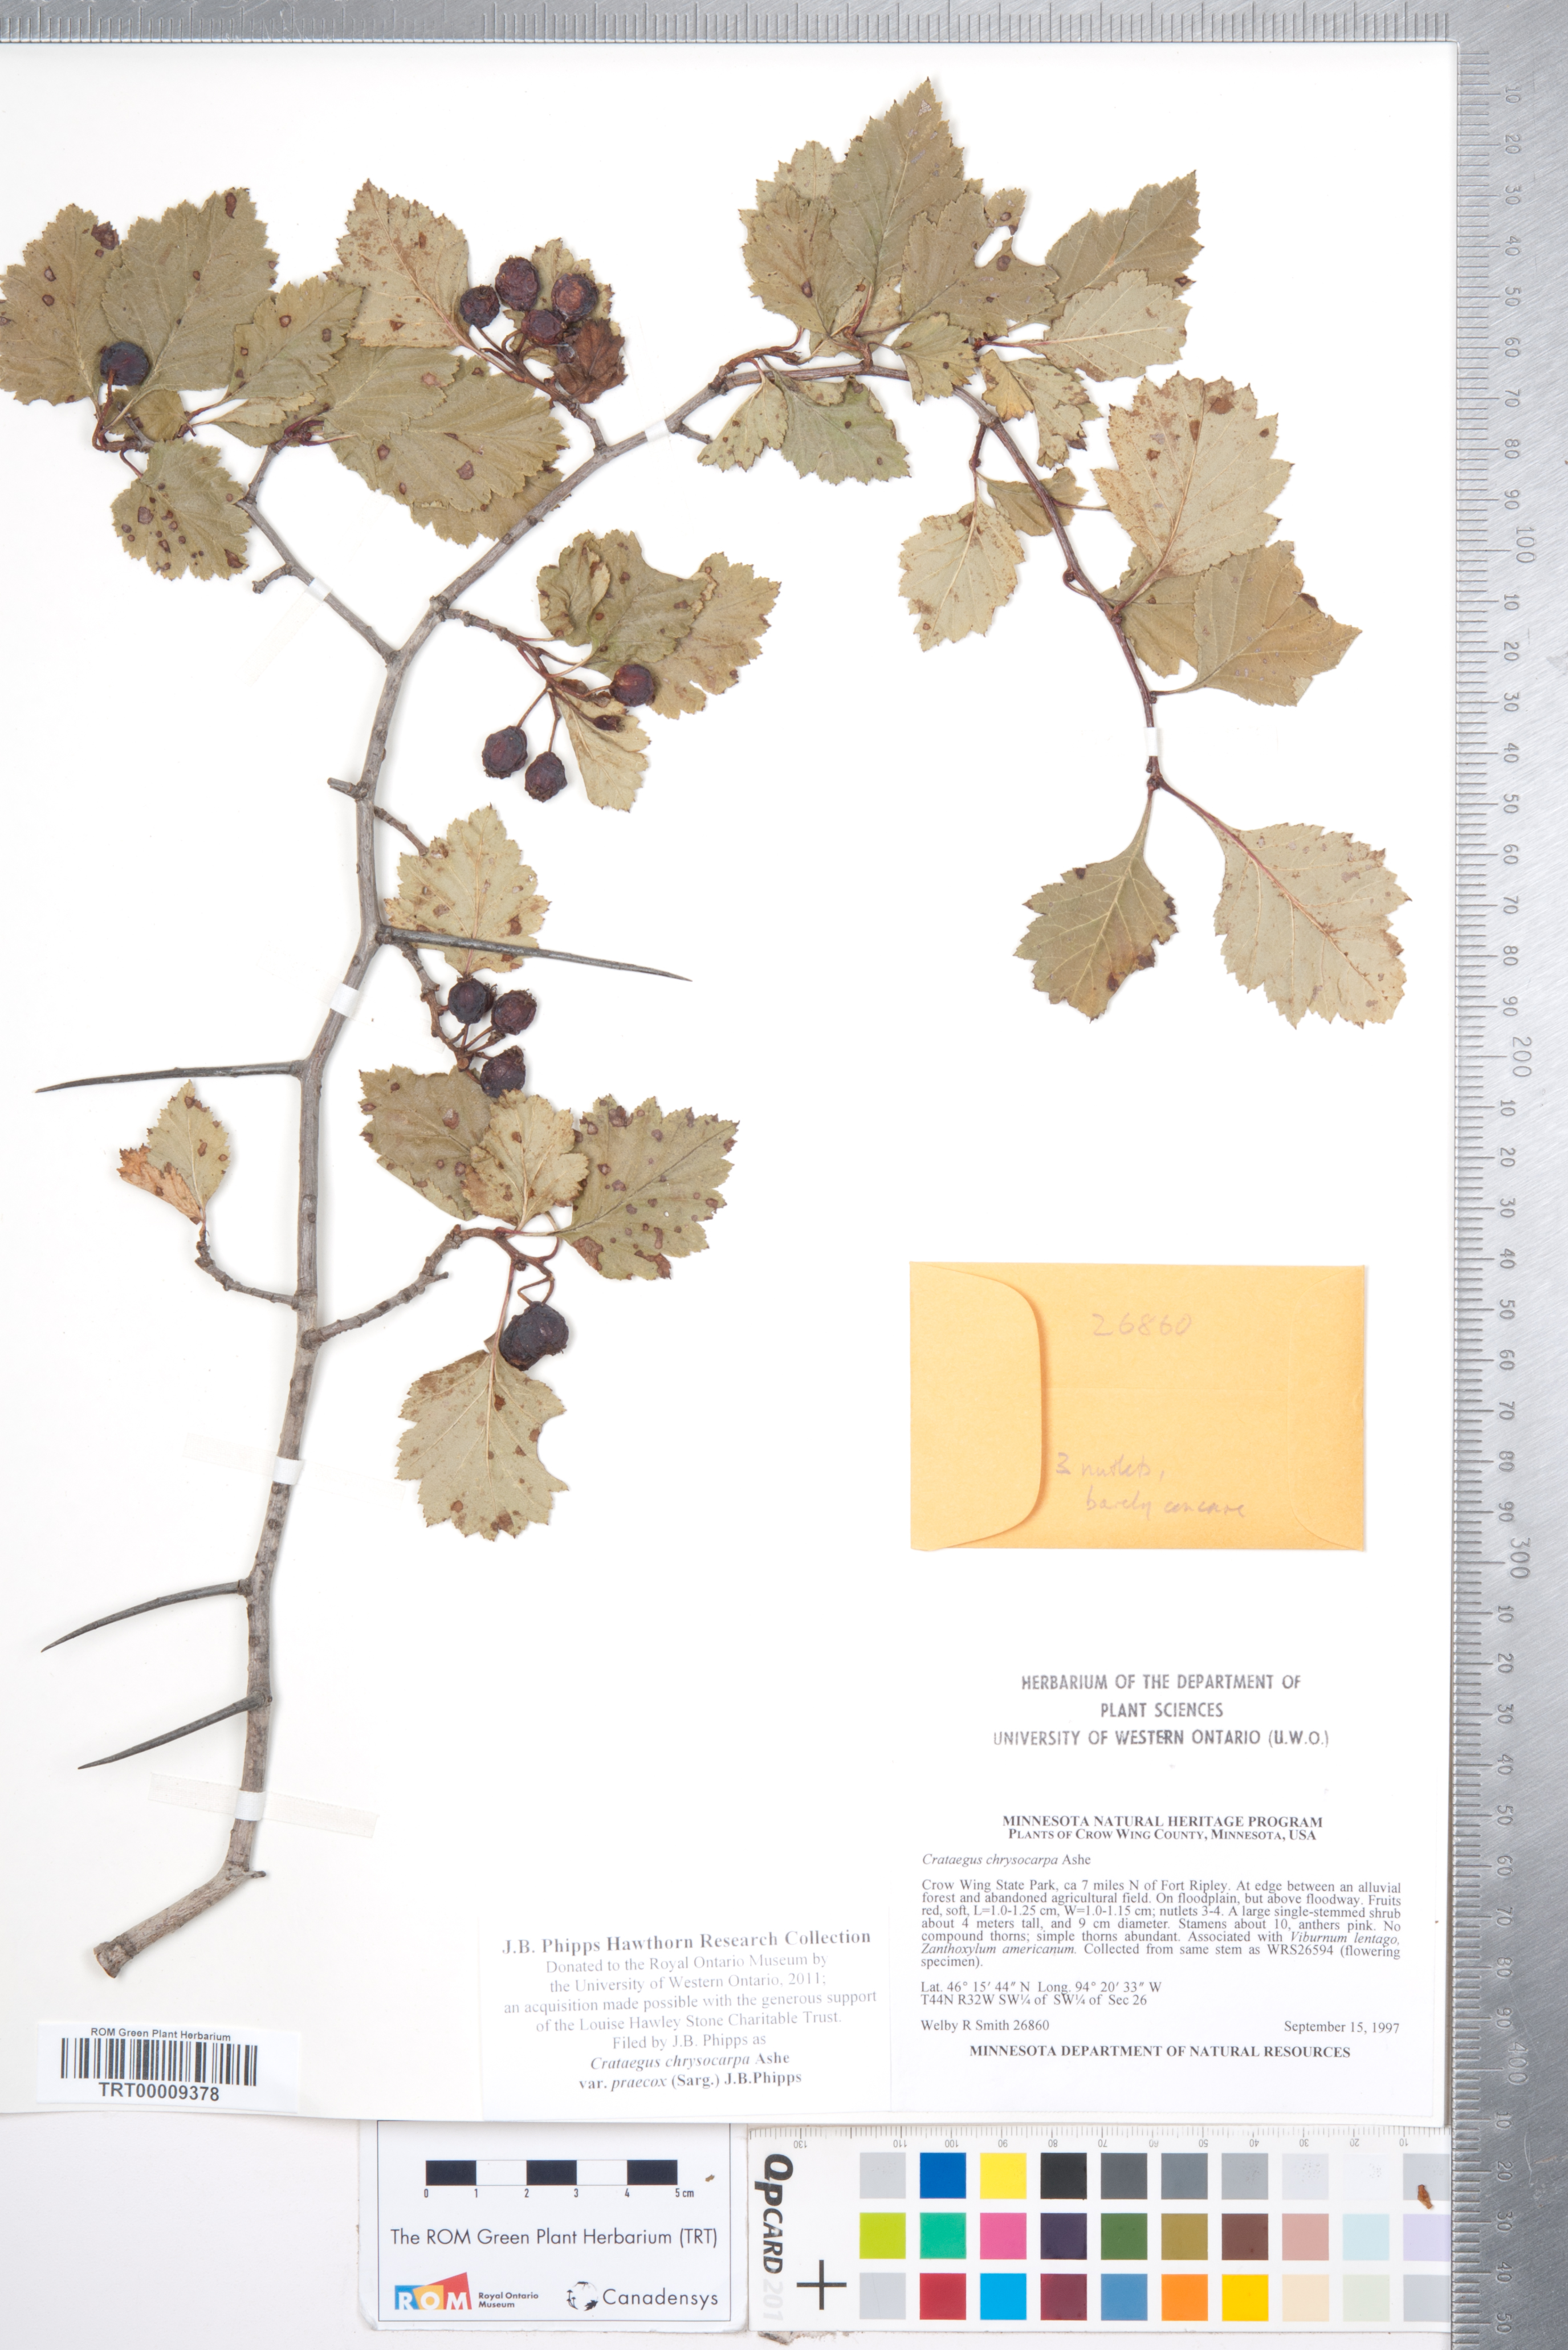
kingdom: Plantae
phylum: Tracheophyta
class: Magnoliopsida
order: Rosales
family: Rosaceae
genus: Crataegus
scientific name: Crataegus chrysocarpa
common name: Fire-berry hawthorn
